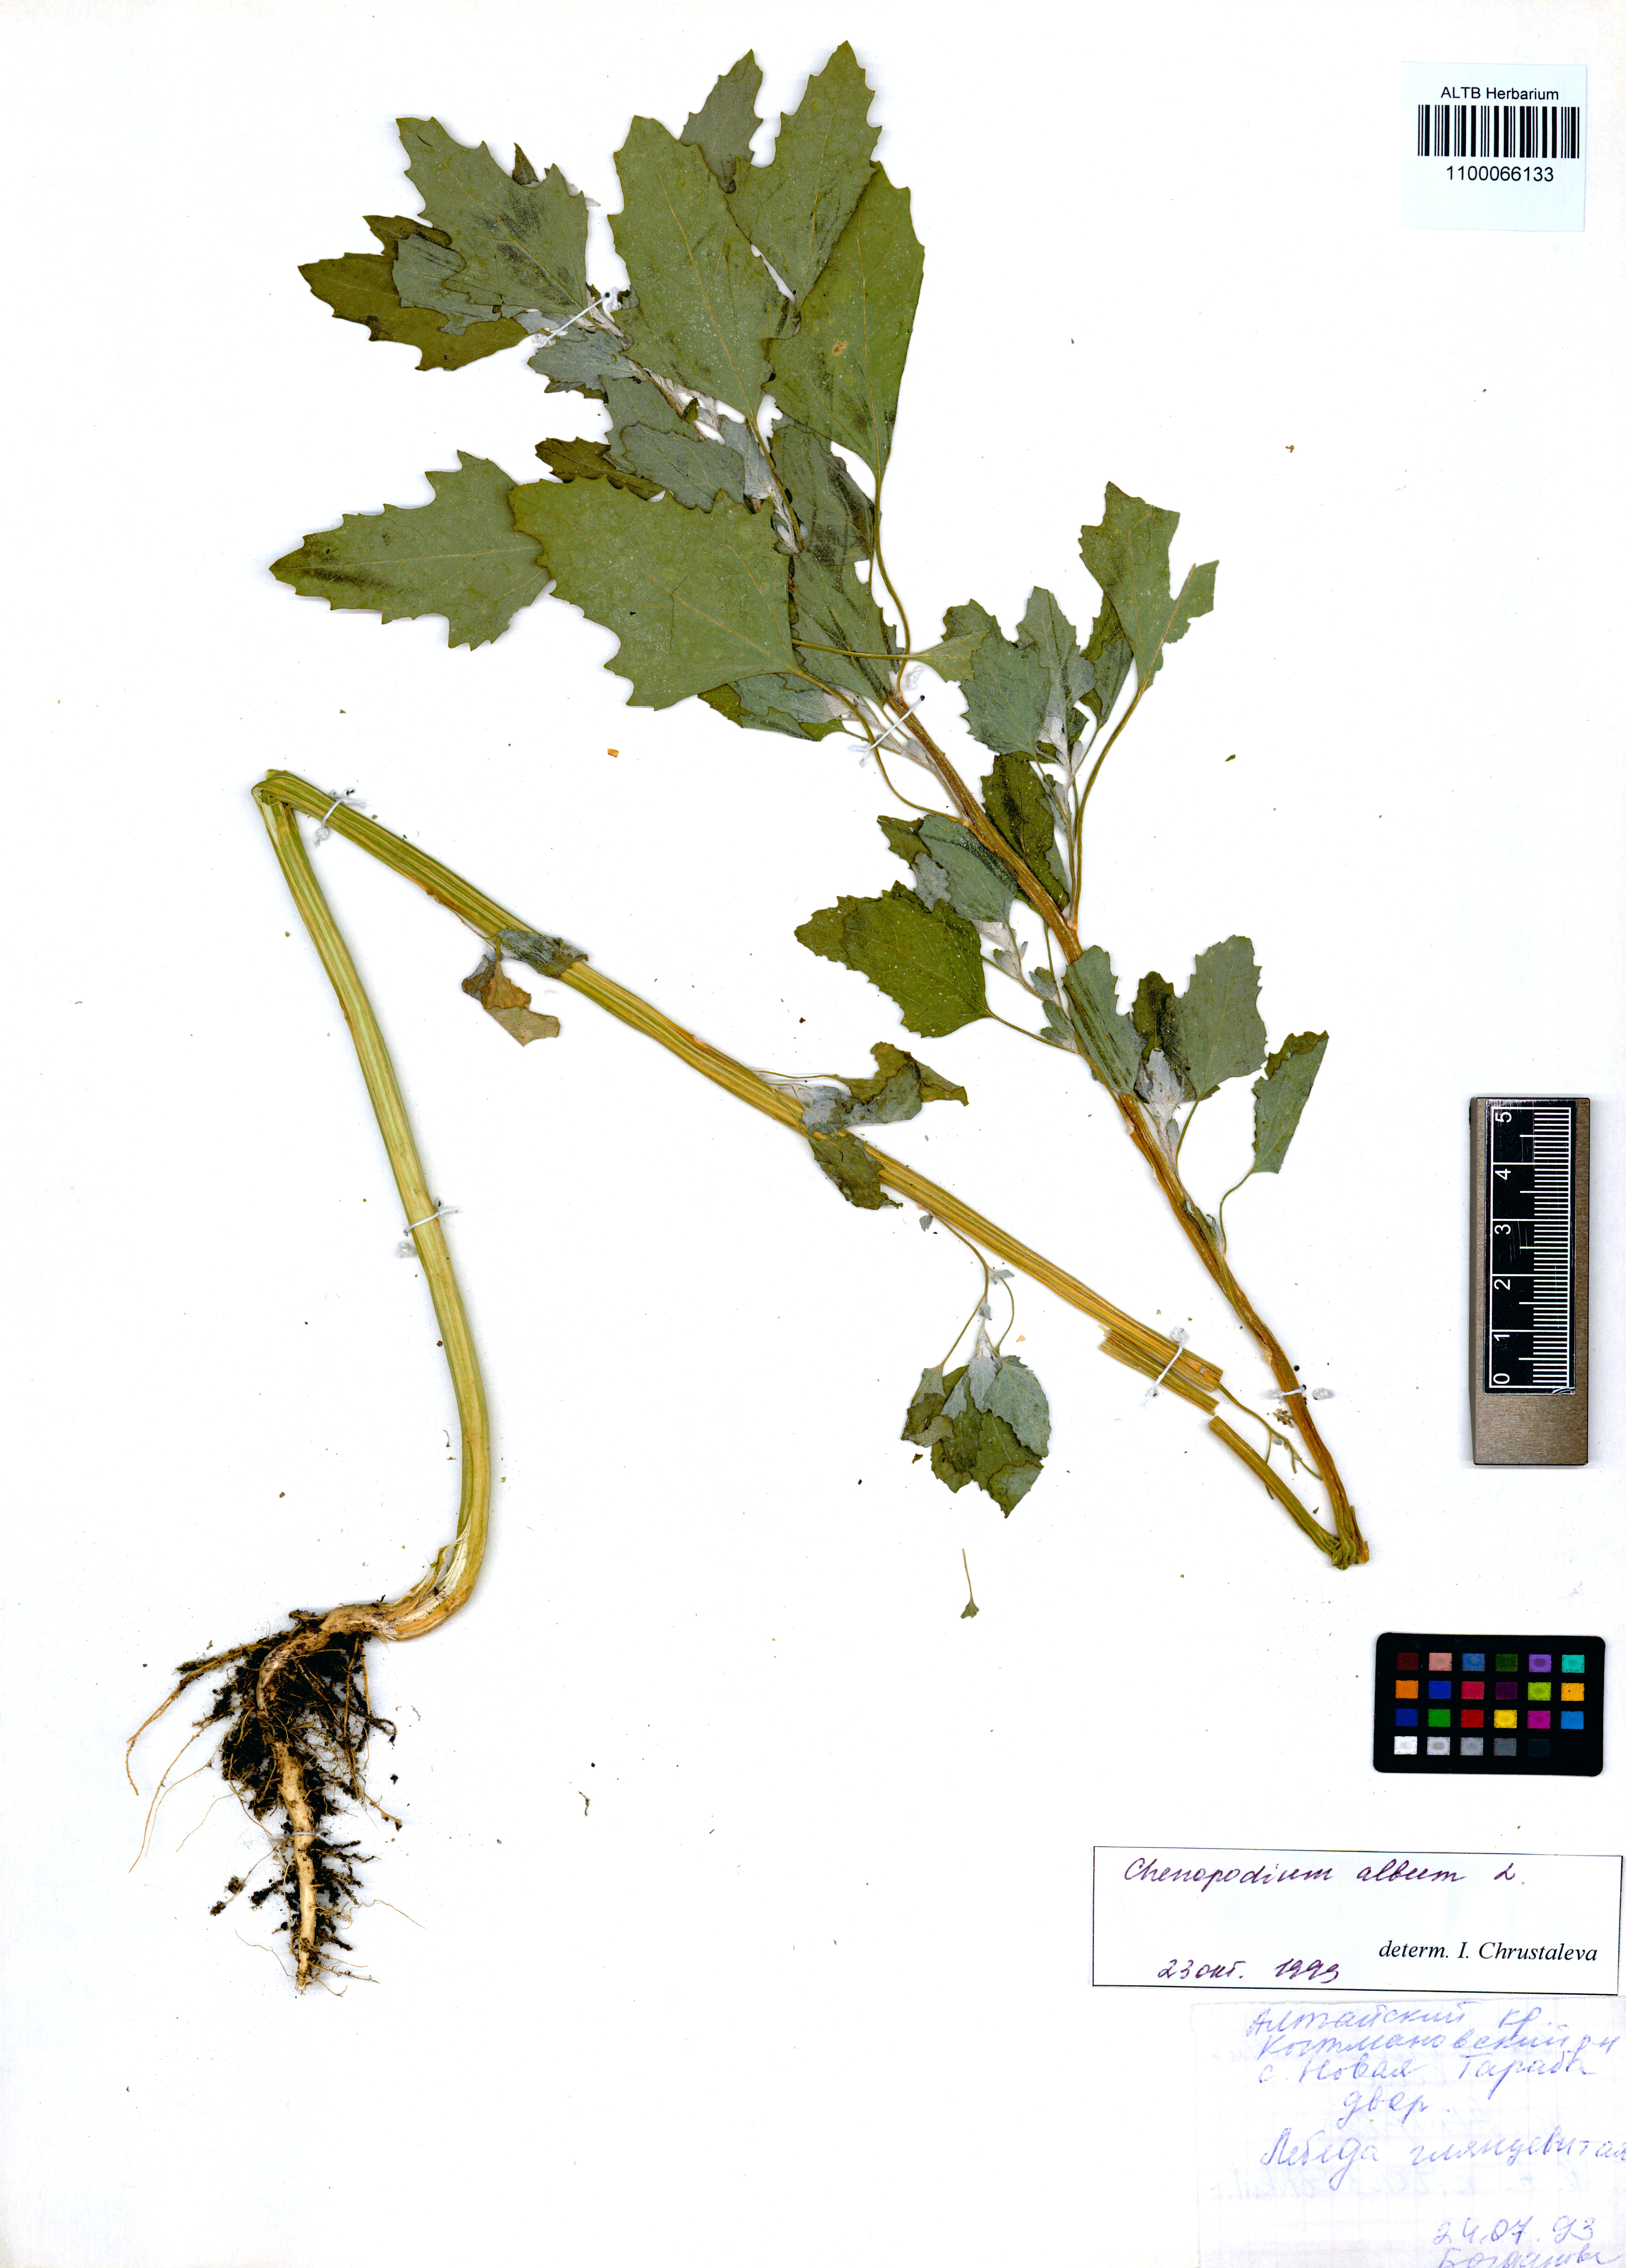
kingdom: Plantae
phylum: Tracheophyta
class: Magnoliopsida
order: Caryophyllales
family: Amaranthaceae
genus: Chenopodium
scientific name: Chenopodium album
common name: Fat-hen
